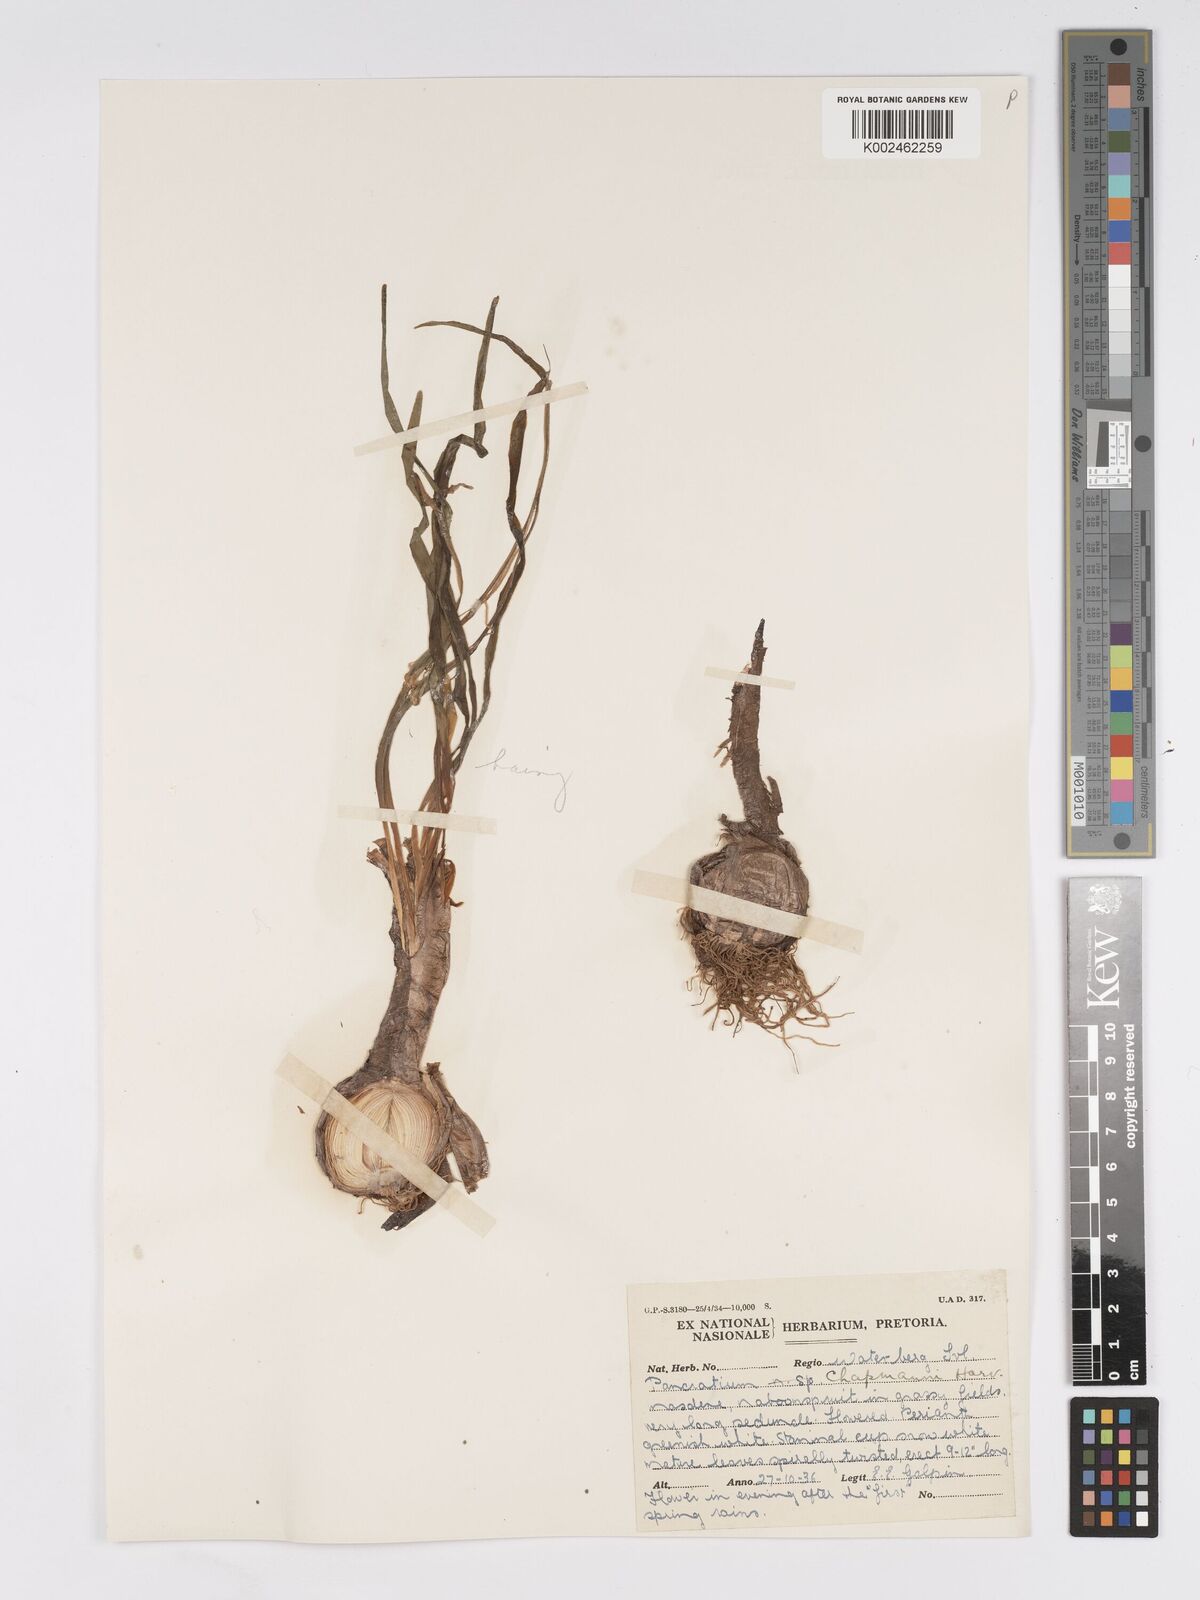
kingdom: Plantae
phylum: Tracheophyta
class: Liliopsida
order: Asparagales
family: Amaryllidaceae
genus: Pancratium
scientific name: Pancratium tenuifolium
